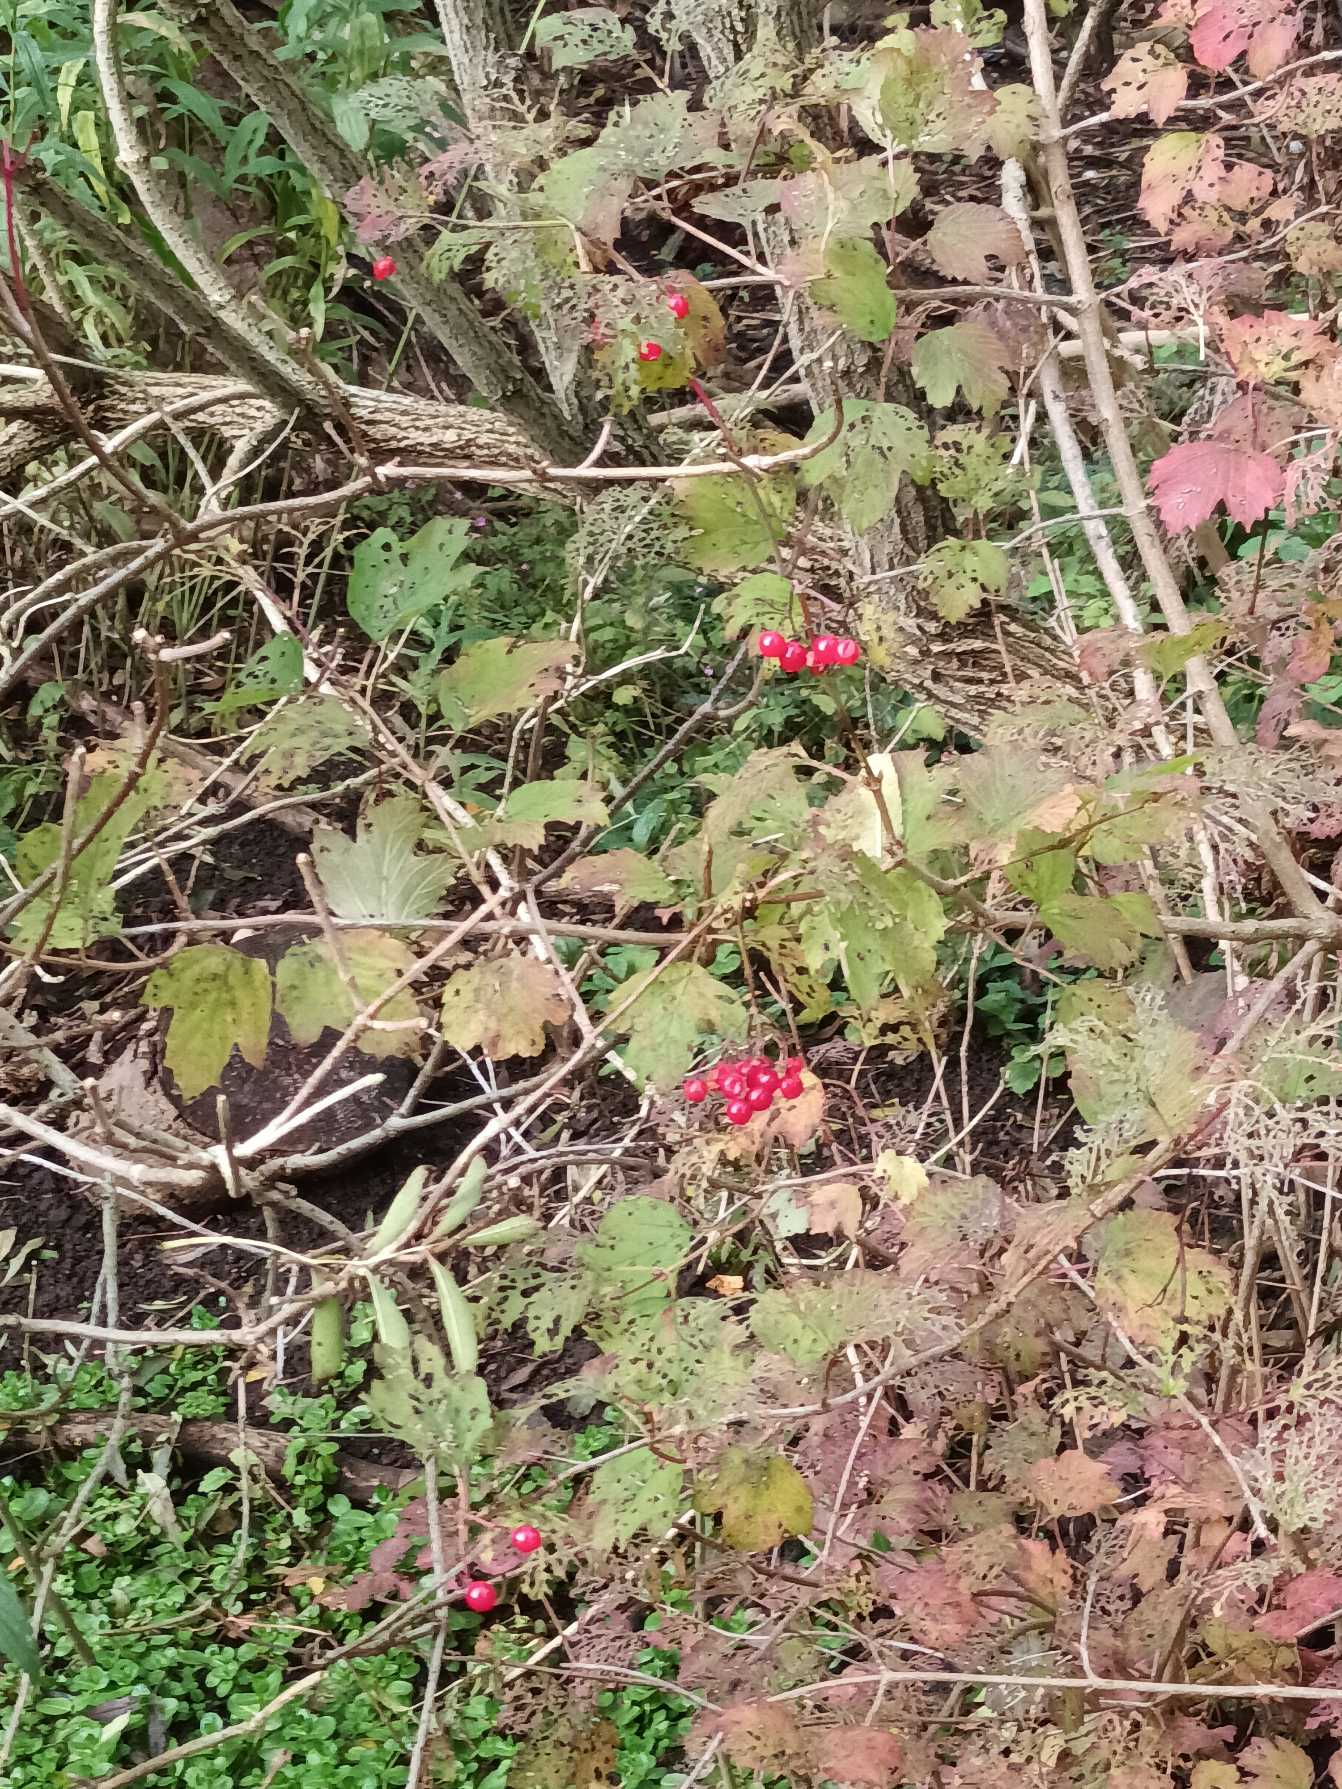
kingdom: Plantae
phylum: Tracheophyta
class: Magnoliopsida
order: Dipsacales
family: Viburnaceae
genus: Viburnum
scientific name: Viburnum opulus
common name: Kvalkved
